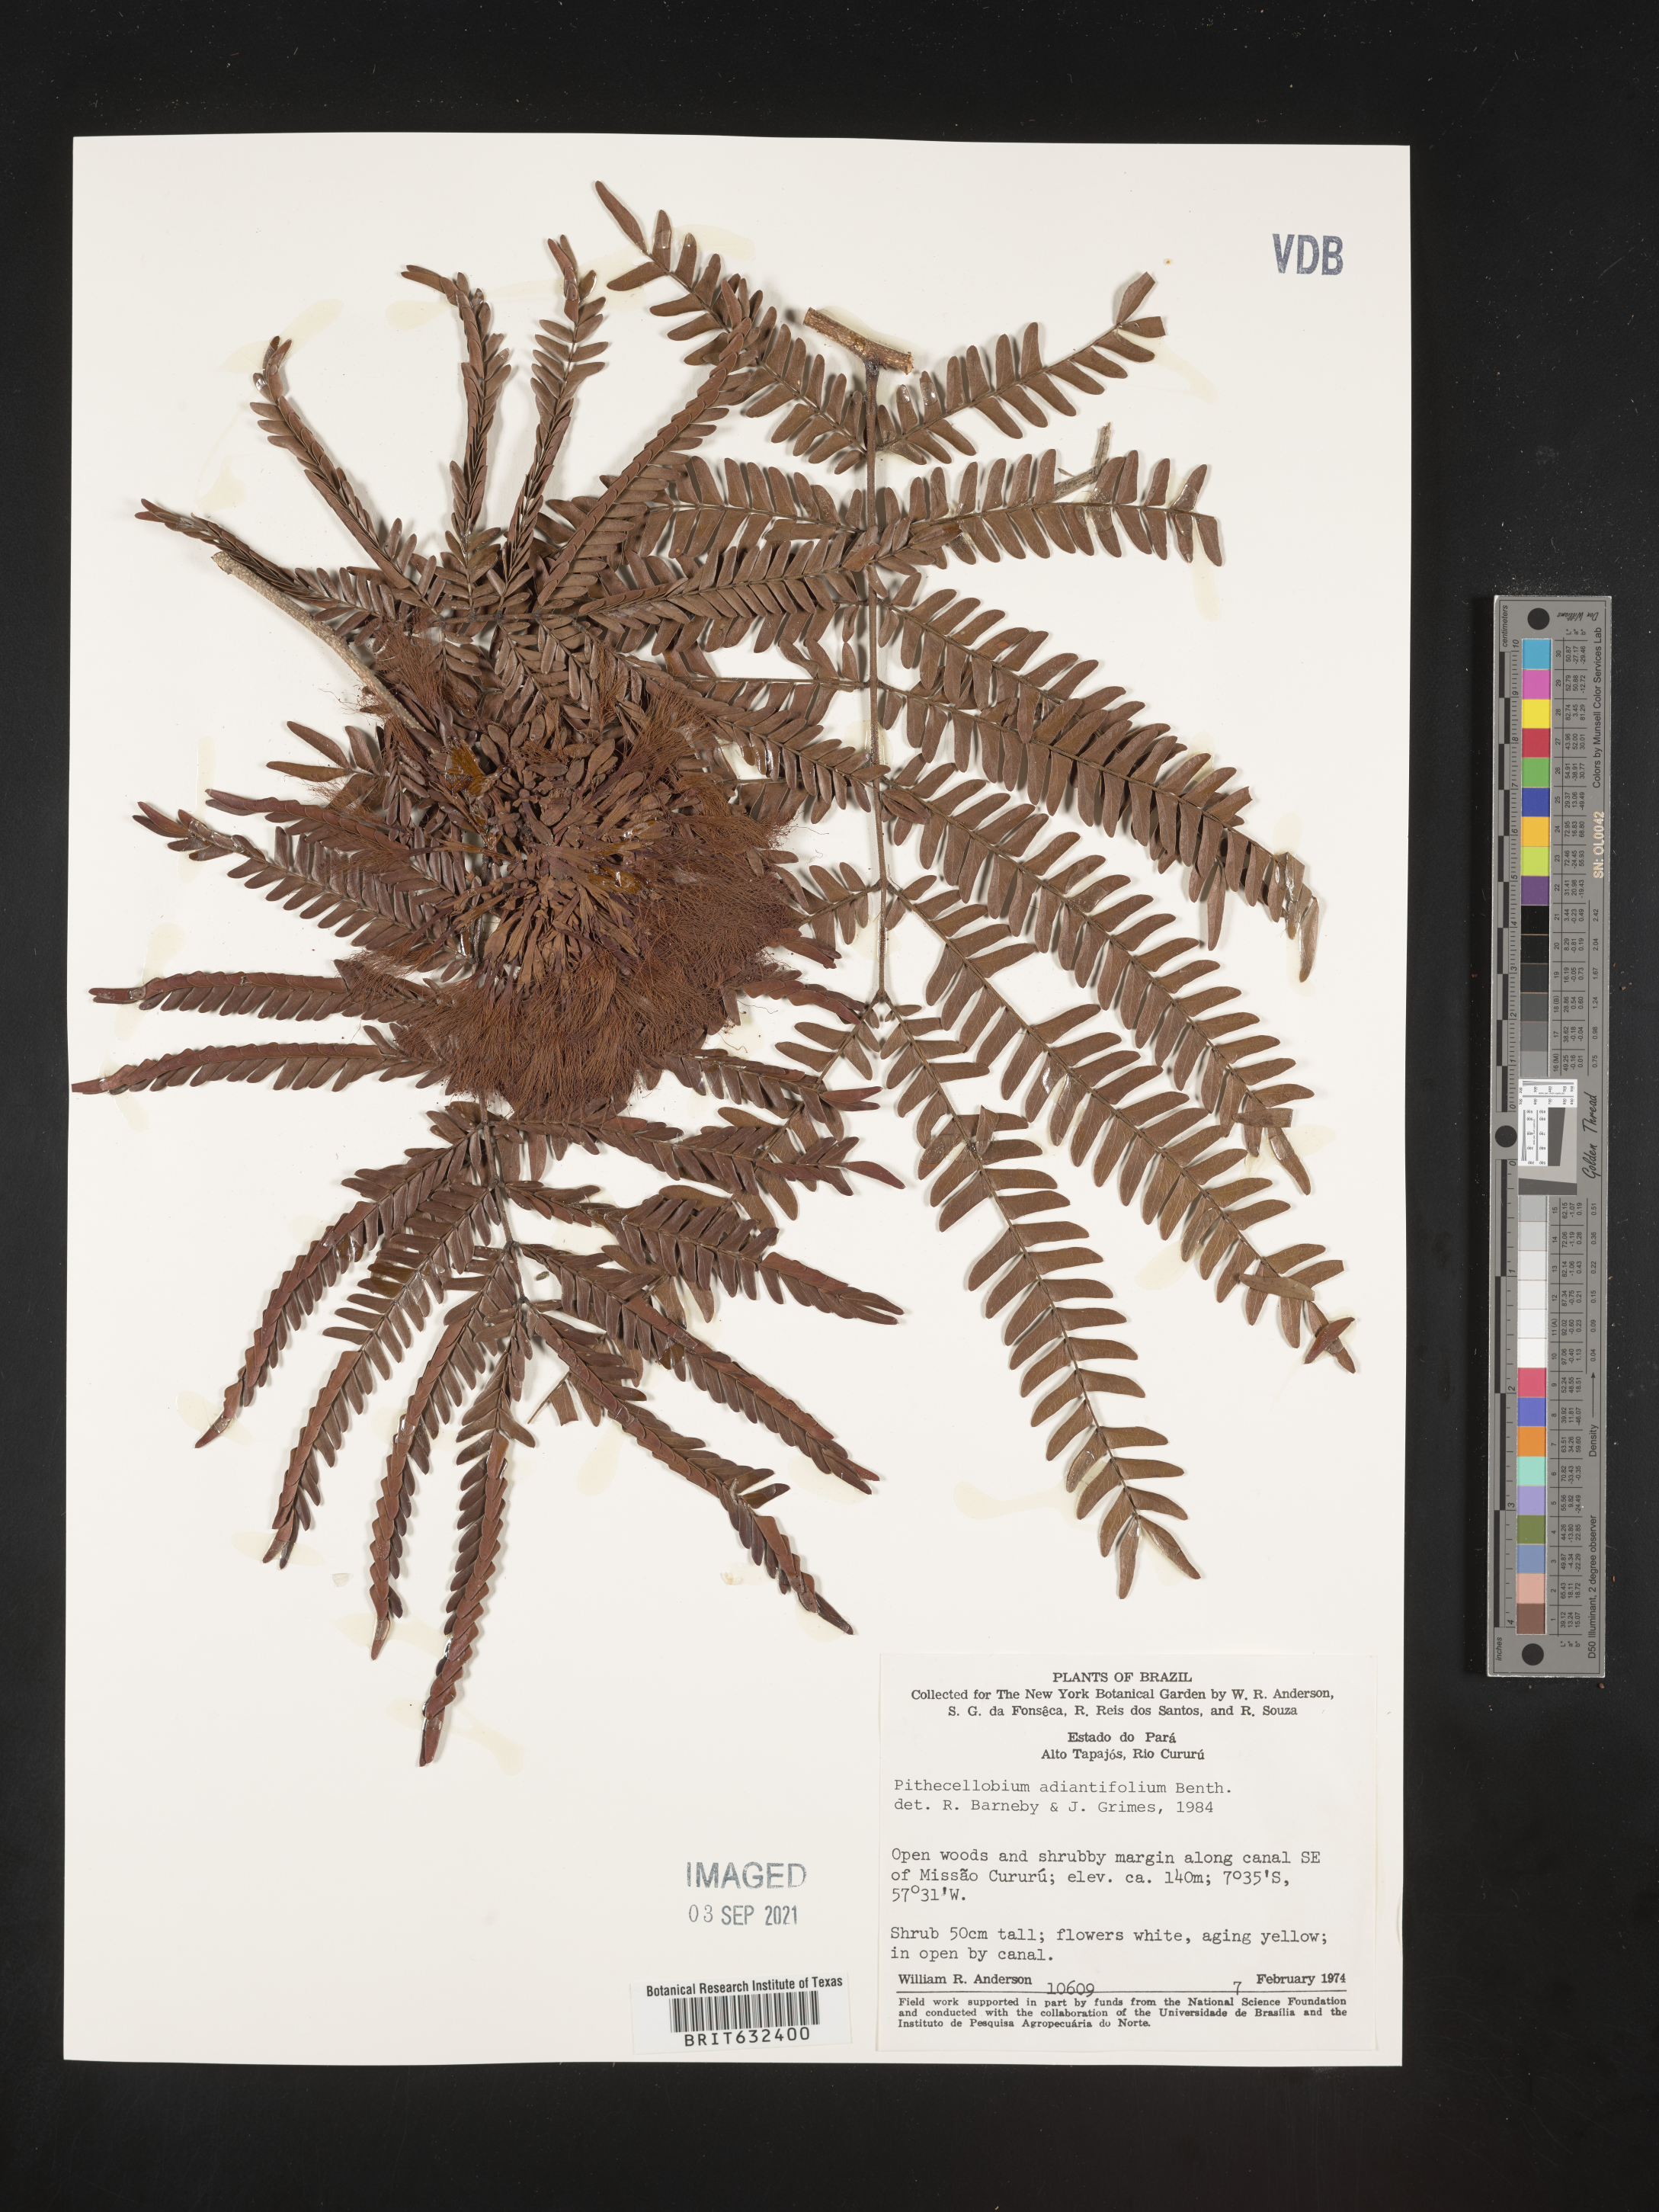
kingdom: Plantae
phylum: Tracheophyta
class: Magnoliopsida
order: Fabales
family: Fabaceae
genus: Pithecellobium
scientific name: Pithecellobium
